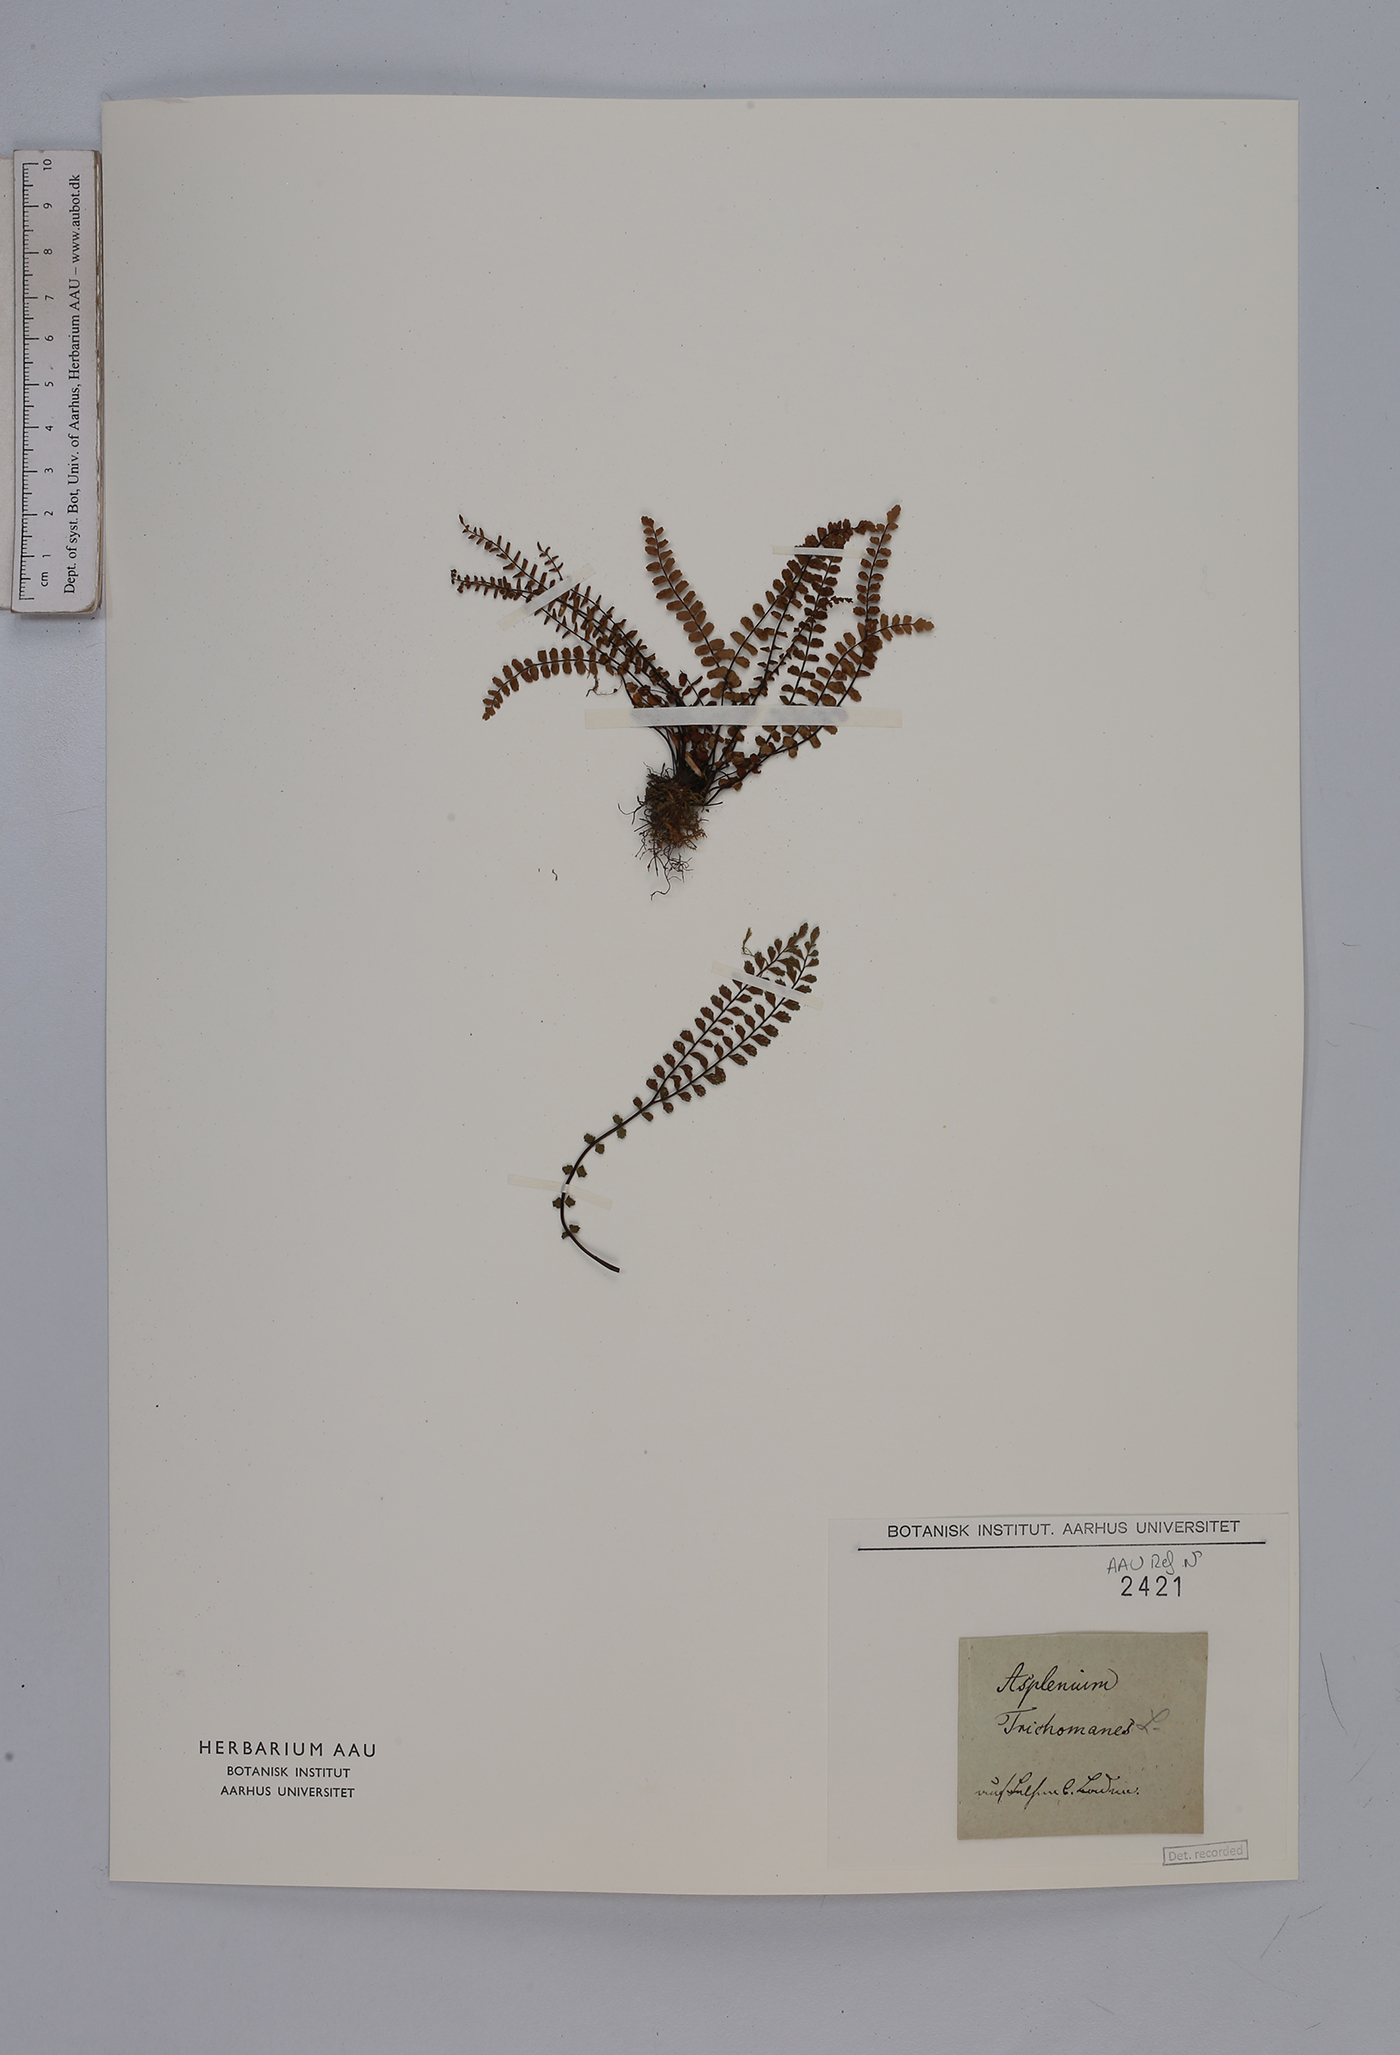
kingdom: Plantae
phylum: Tracheophyta
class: Polypodiopsida
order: Polypodiales
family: Aspleniaceae
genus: Asplenium
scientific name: Asplenium trichomanes
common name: Maidenhair spleenwort
